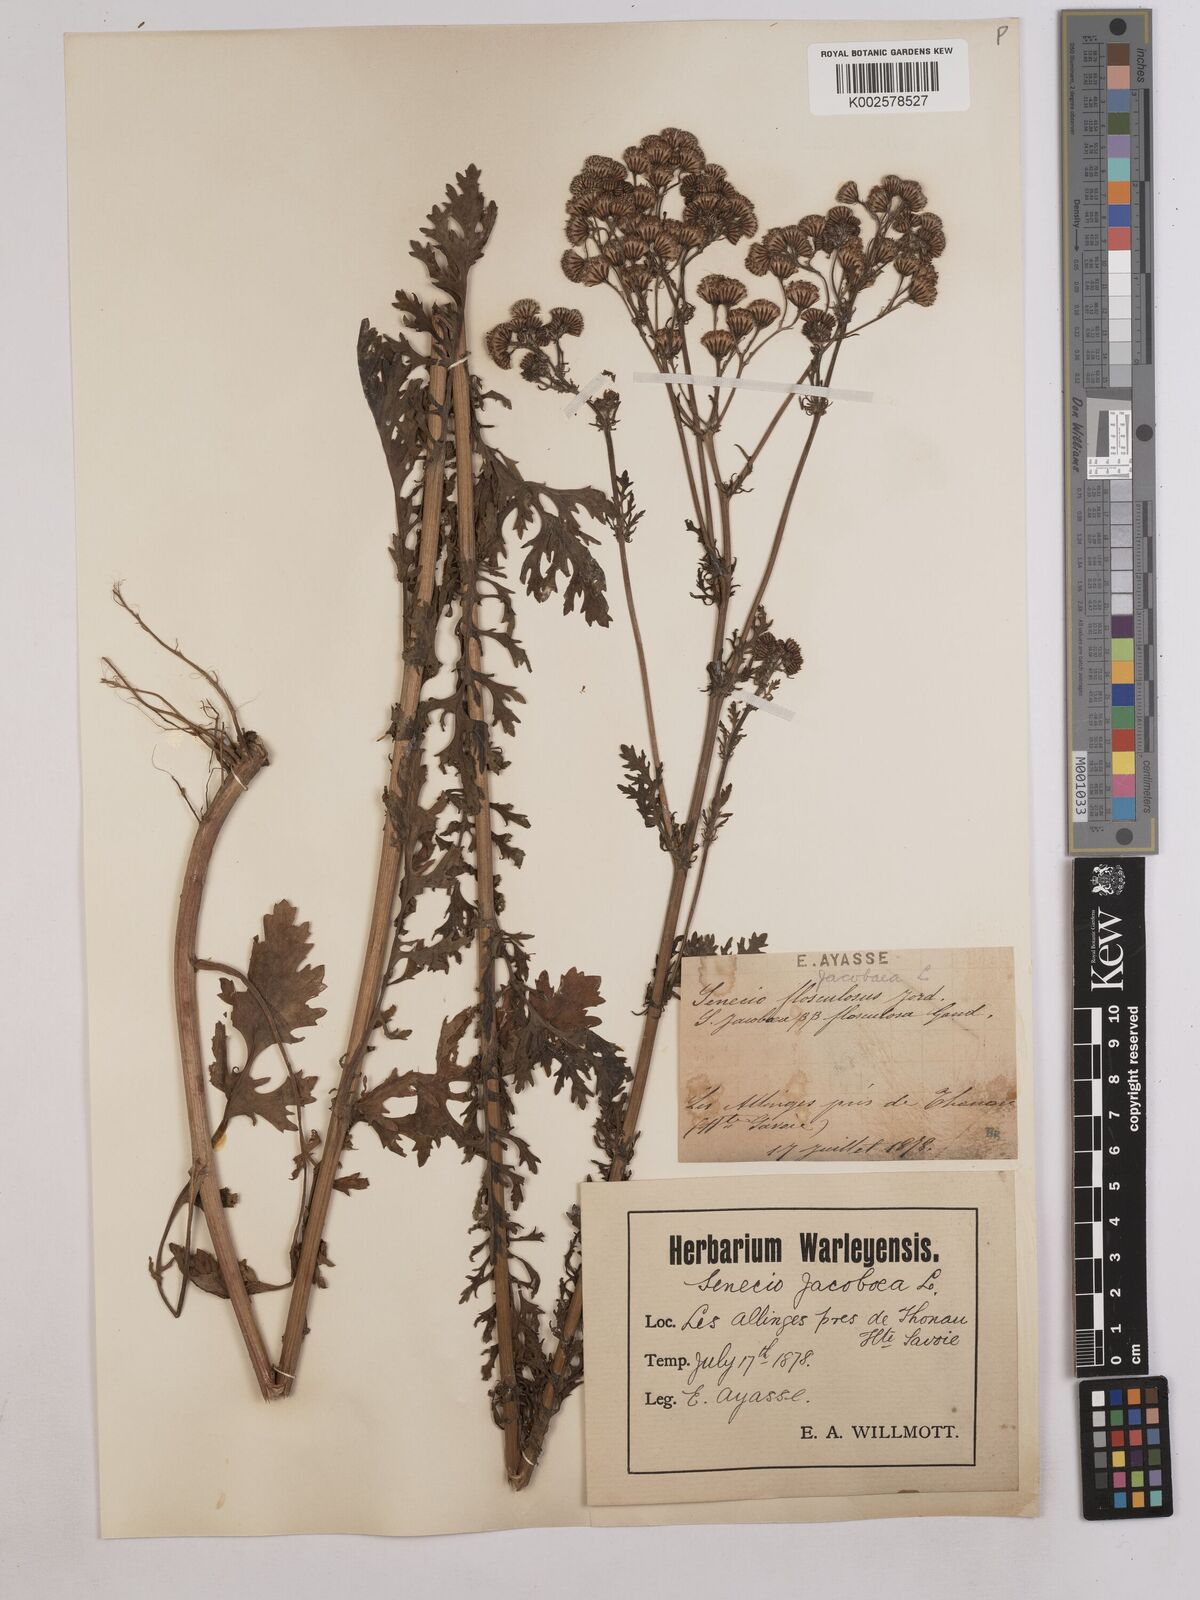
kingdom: Plantae
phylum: Tracheophyta
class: Magnoliopsida
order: Asterales
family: Asteraceae
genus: Jacobaea
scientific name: Jacobaea vulgaris
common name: Stinking willie
